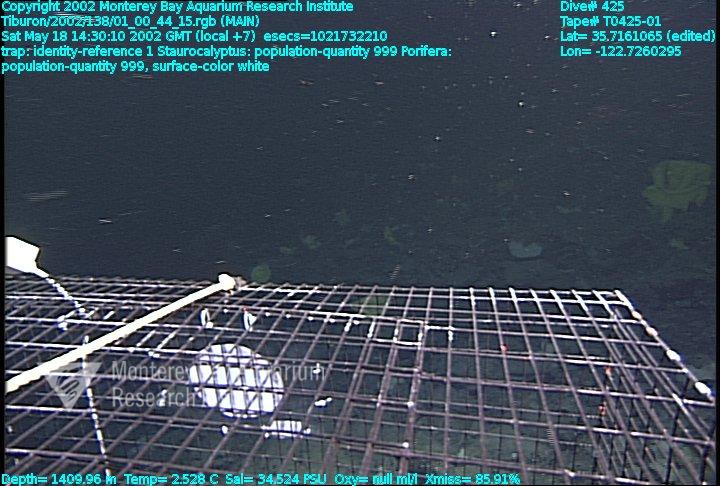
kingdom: Animalia
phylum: Porifera
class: Hexactinellida
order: Lyssacinosida
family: Rossellidae
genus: Staurocalyptus
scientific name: Staurocalyptus
